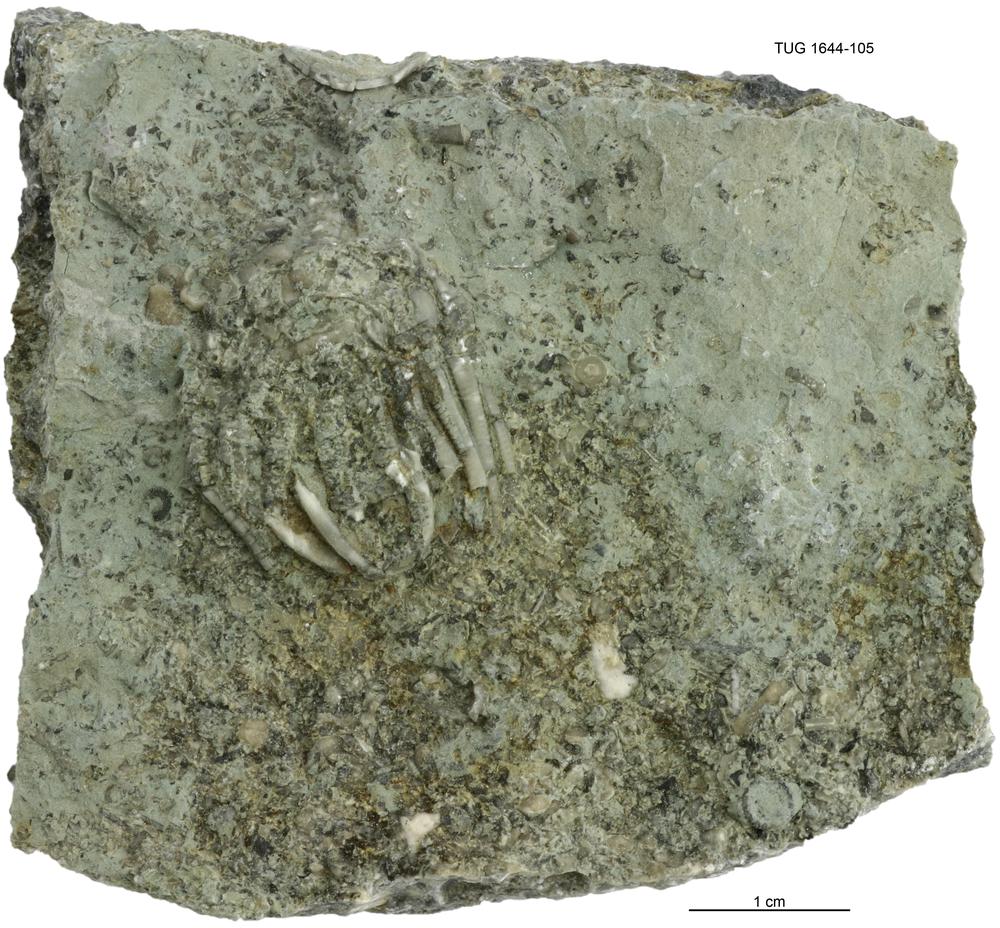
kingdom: Animalia
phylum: Echinodermata
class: Crinoidea
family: Eucalyptocrinitidae
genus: Eucalyptocrinites
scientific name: Eucalyptocrinites
